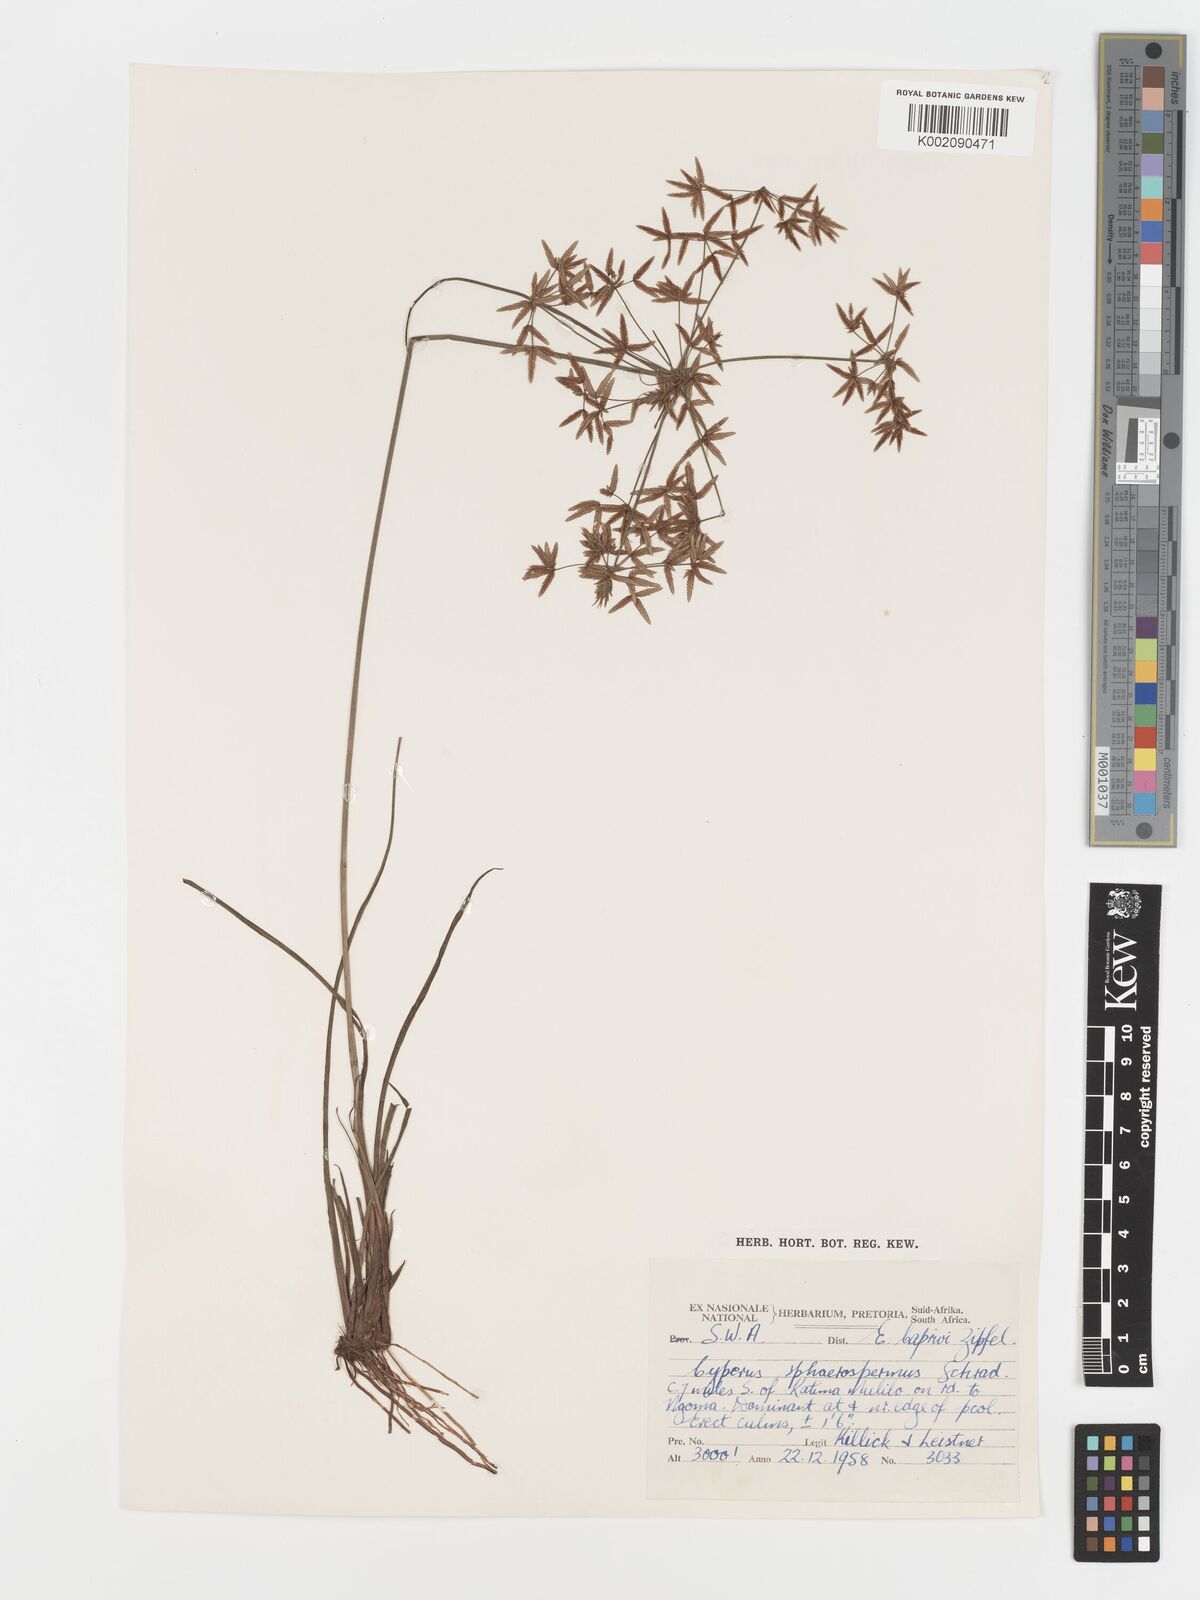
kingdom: Plantae
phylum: Tracheophyta
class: Liliopsida
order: Poales
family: Cyperaceae
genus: Cyperus
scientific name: Cyperus sphaerospermus
